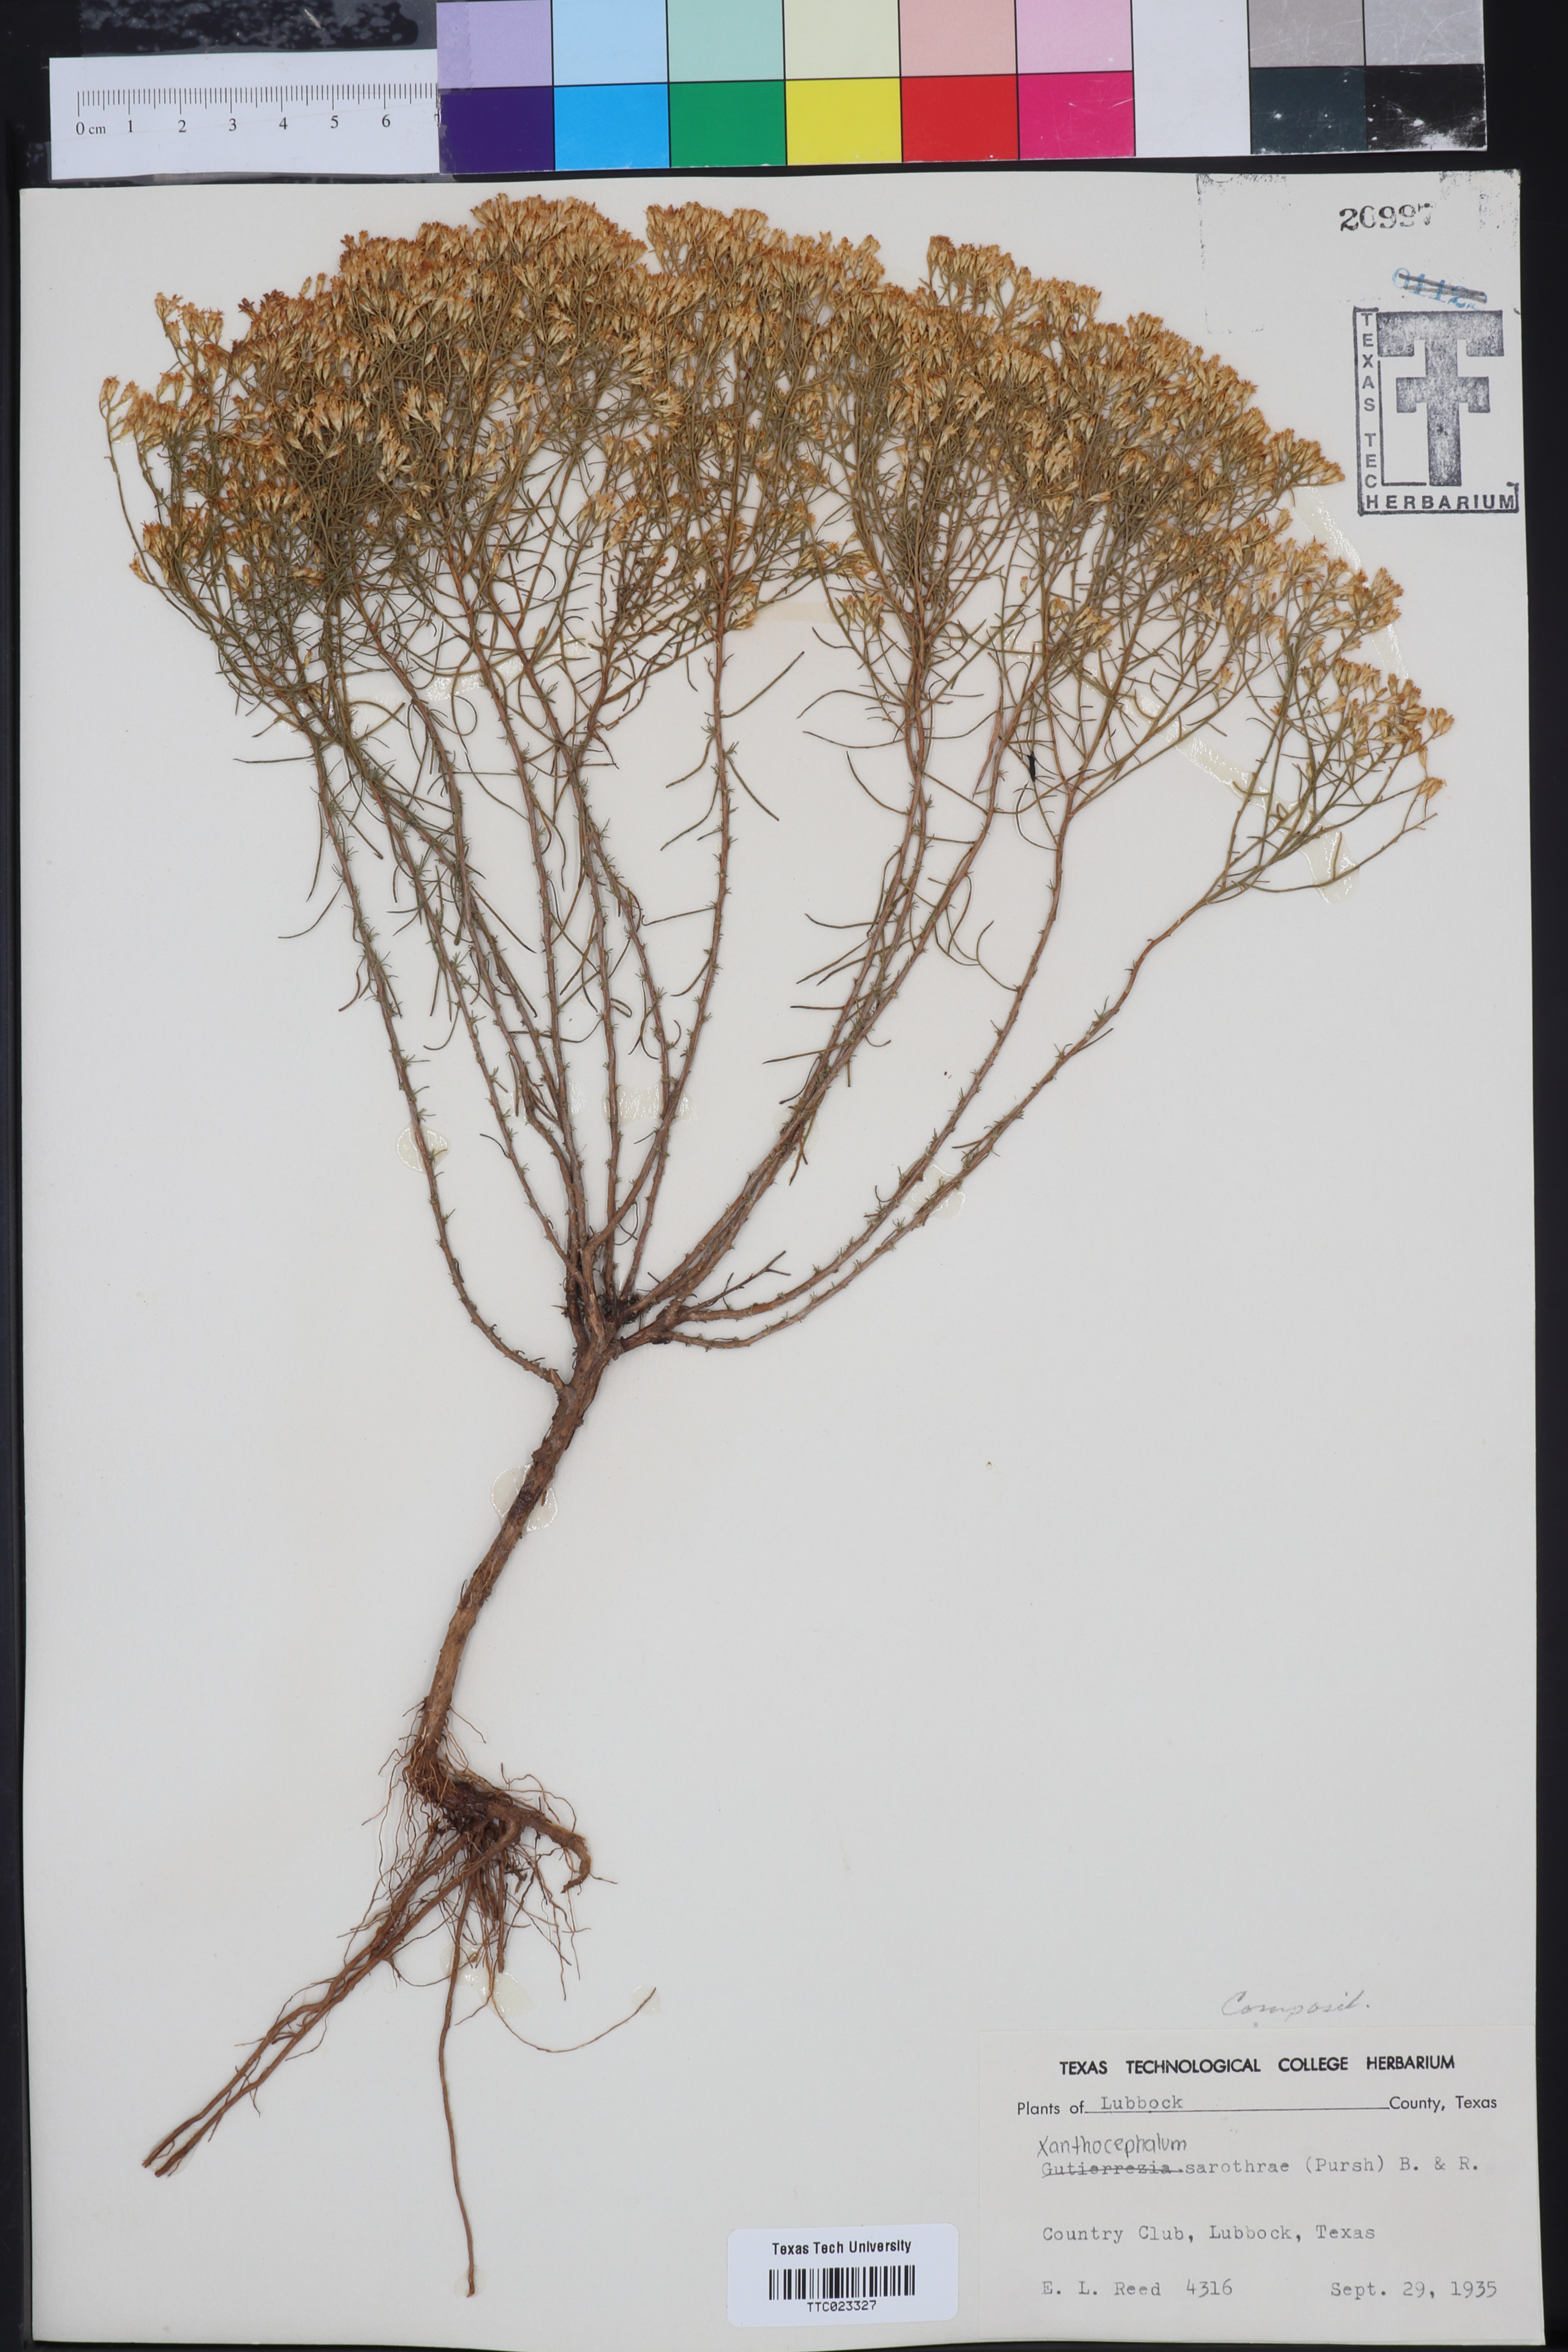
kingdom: Plantae
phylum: Tracheophyta
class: Magnoliopsida
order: Asterales
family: Asteraceae
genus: Gutierrezia
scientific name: Gutierrezia sarothrae
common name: Broom snakeweed
